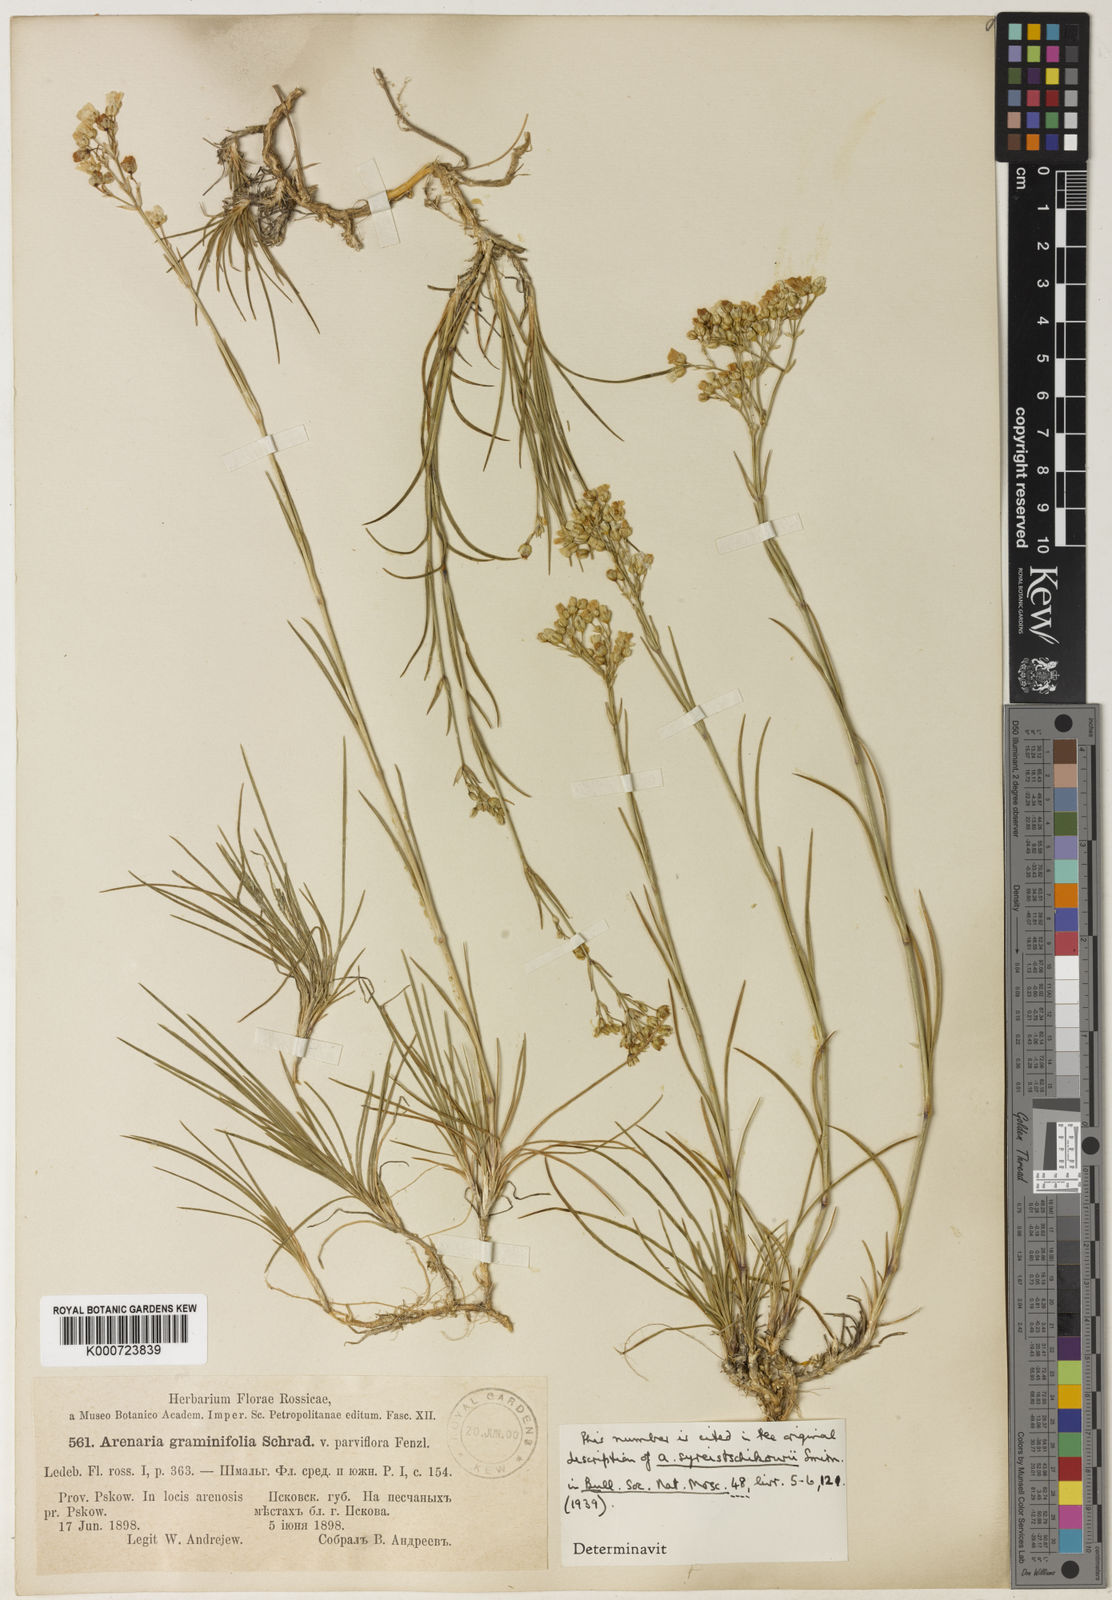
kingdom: Plantae
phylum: Tracheophyta
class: Magnoliopsida
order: Caryophyllales
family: Caryophyllaceae
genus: Eremogone
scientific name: Eremogone saxatilis
